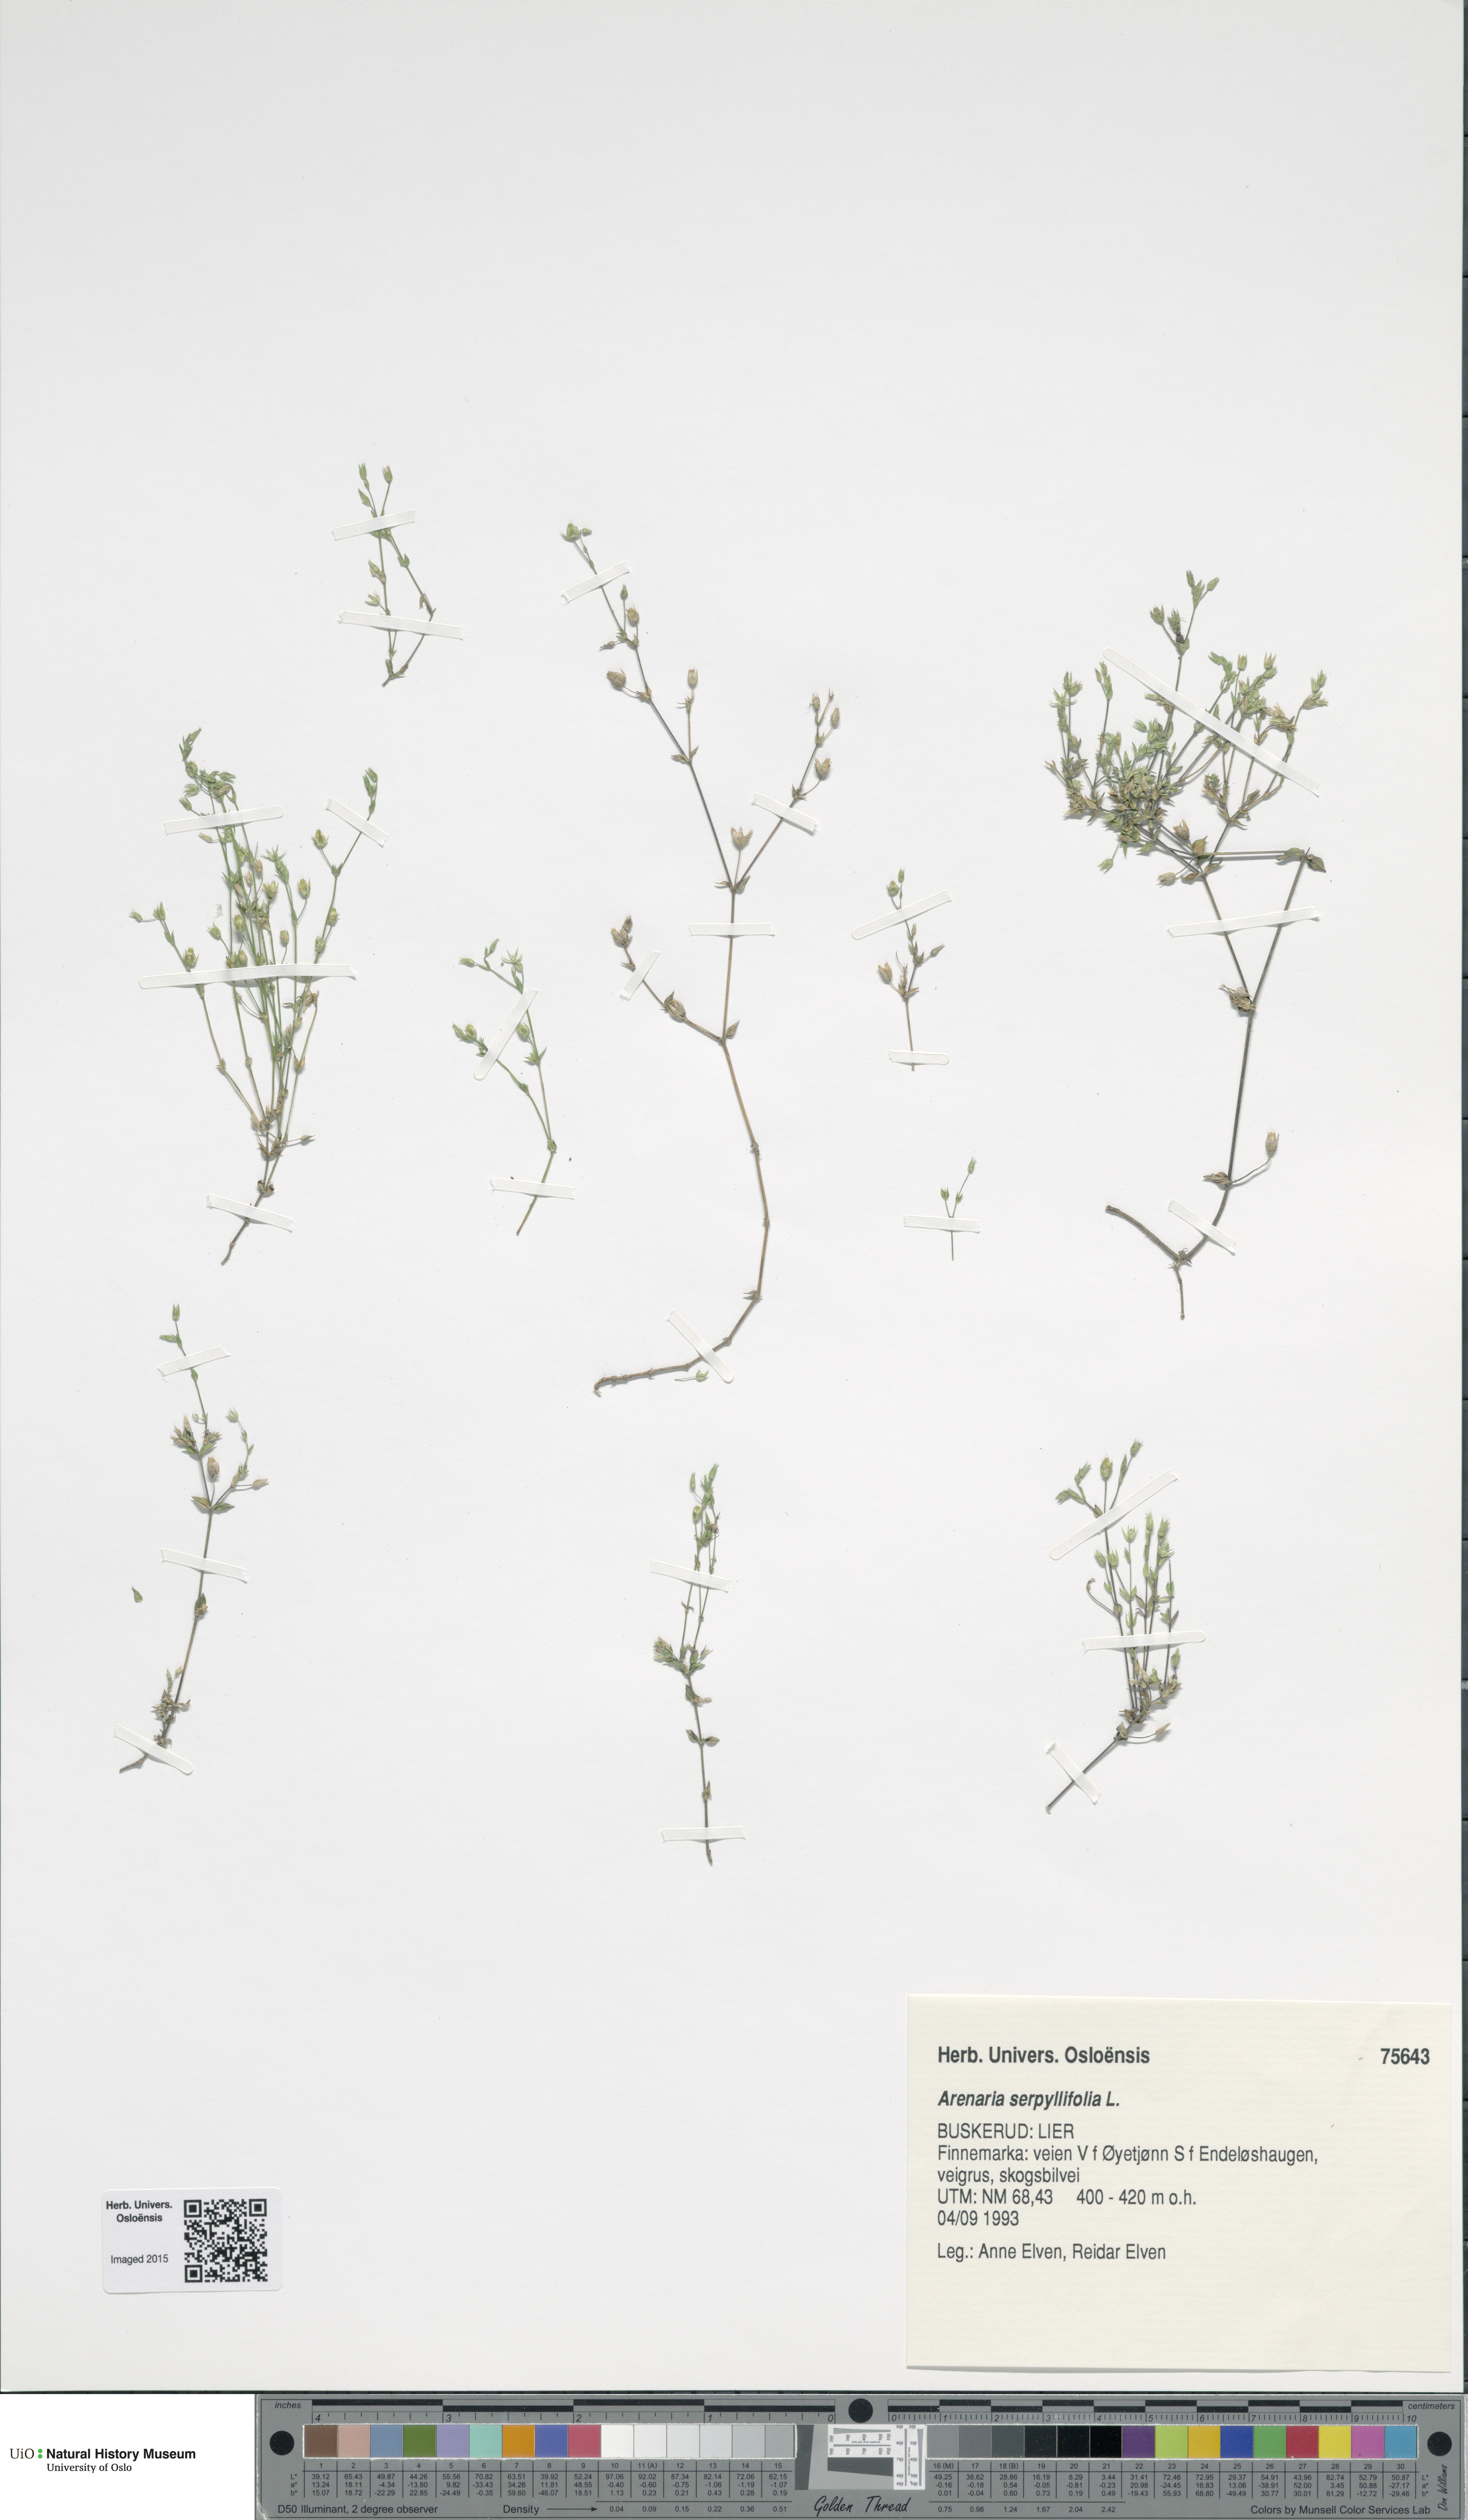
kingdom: Plantae
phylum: Tracheophyta
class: Magnoliopsida
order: Caryophyllales
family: Caryophyllaceae
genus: Arenaria
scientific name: Arenaria serpyllifolia
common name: Thyme-leaved sandwort
